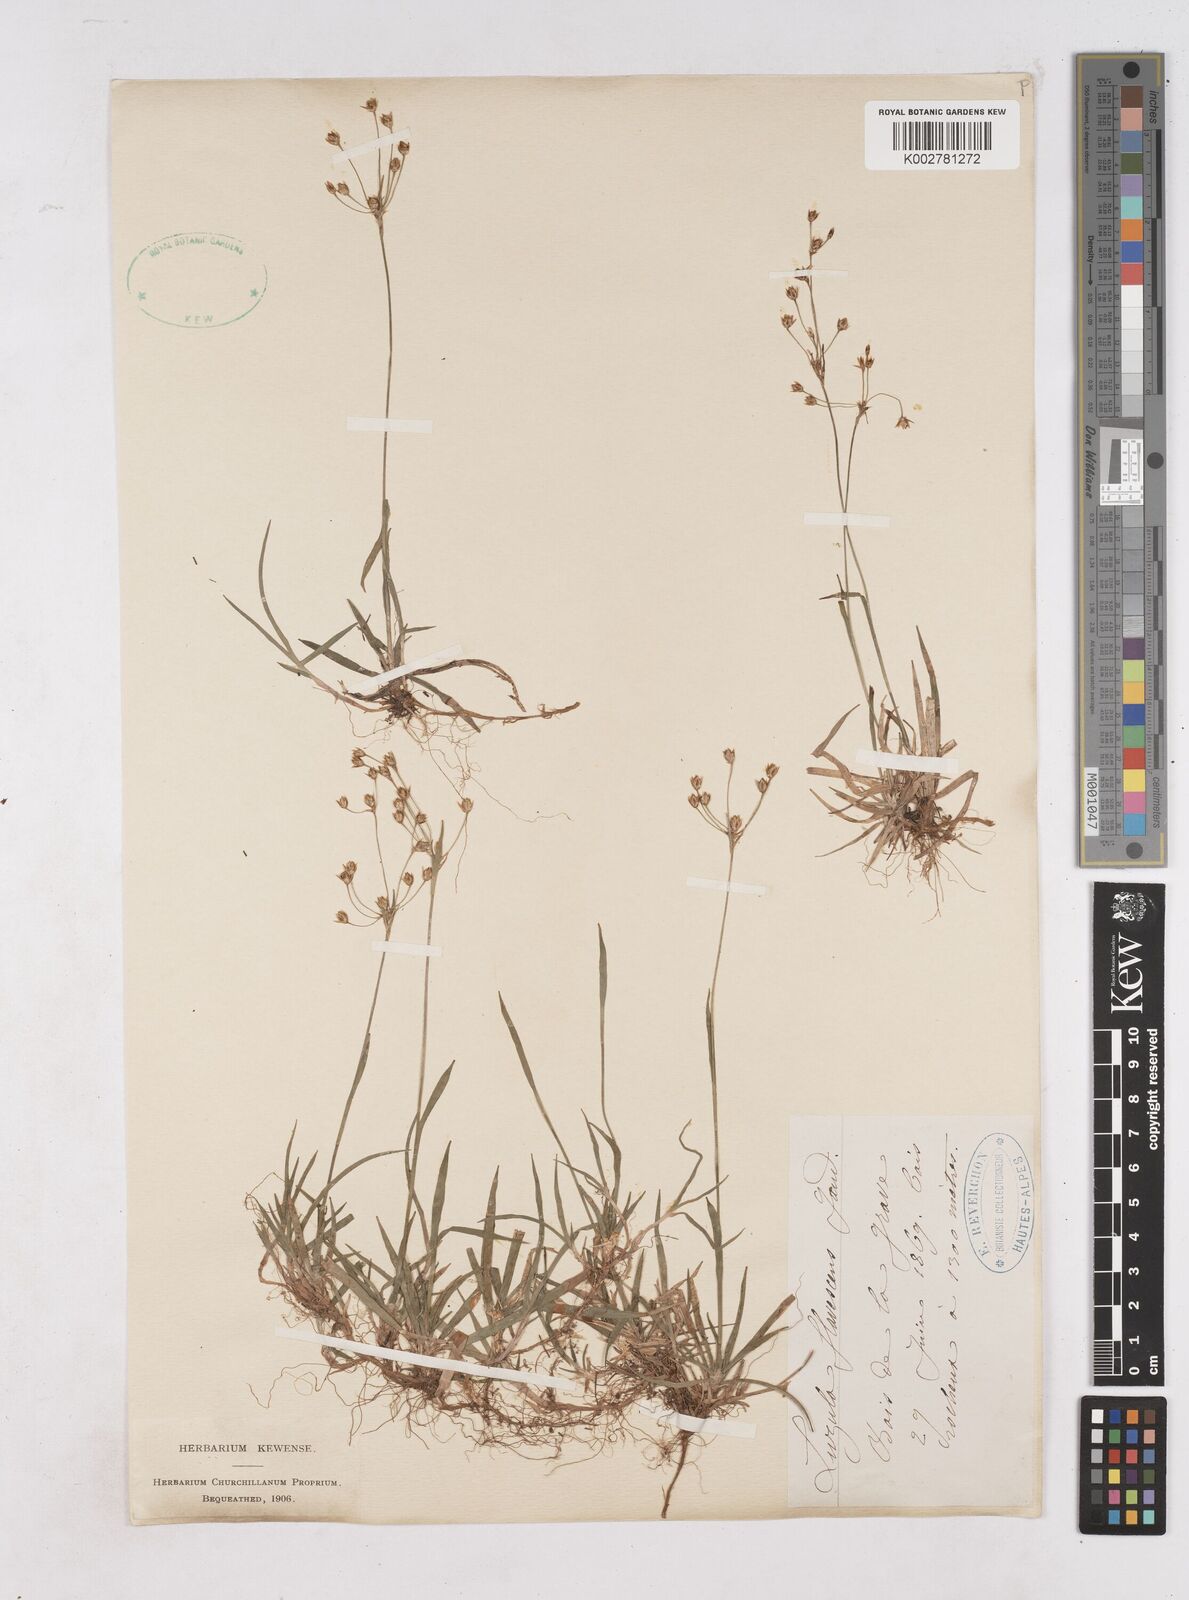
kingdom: Plantae
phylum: Tracheophyta
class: Liliopsida
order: Poales
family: Juncaceae
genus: Luzula
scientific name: Luzula luzulina
